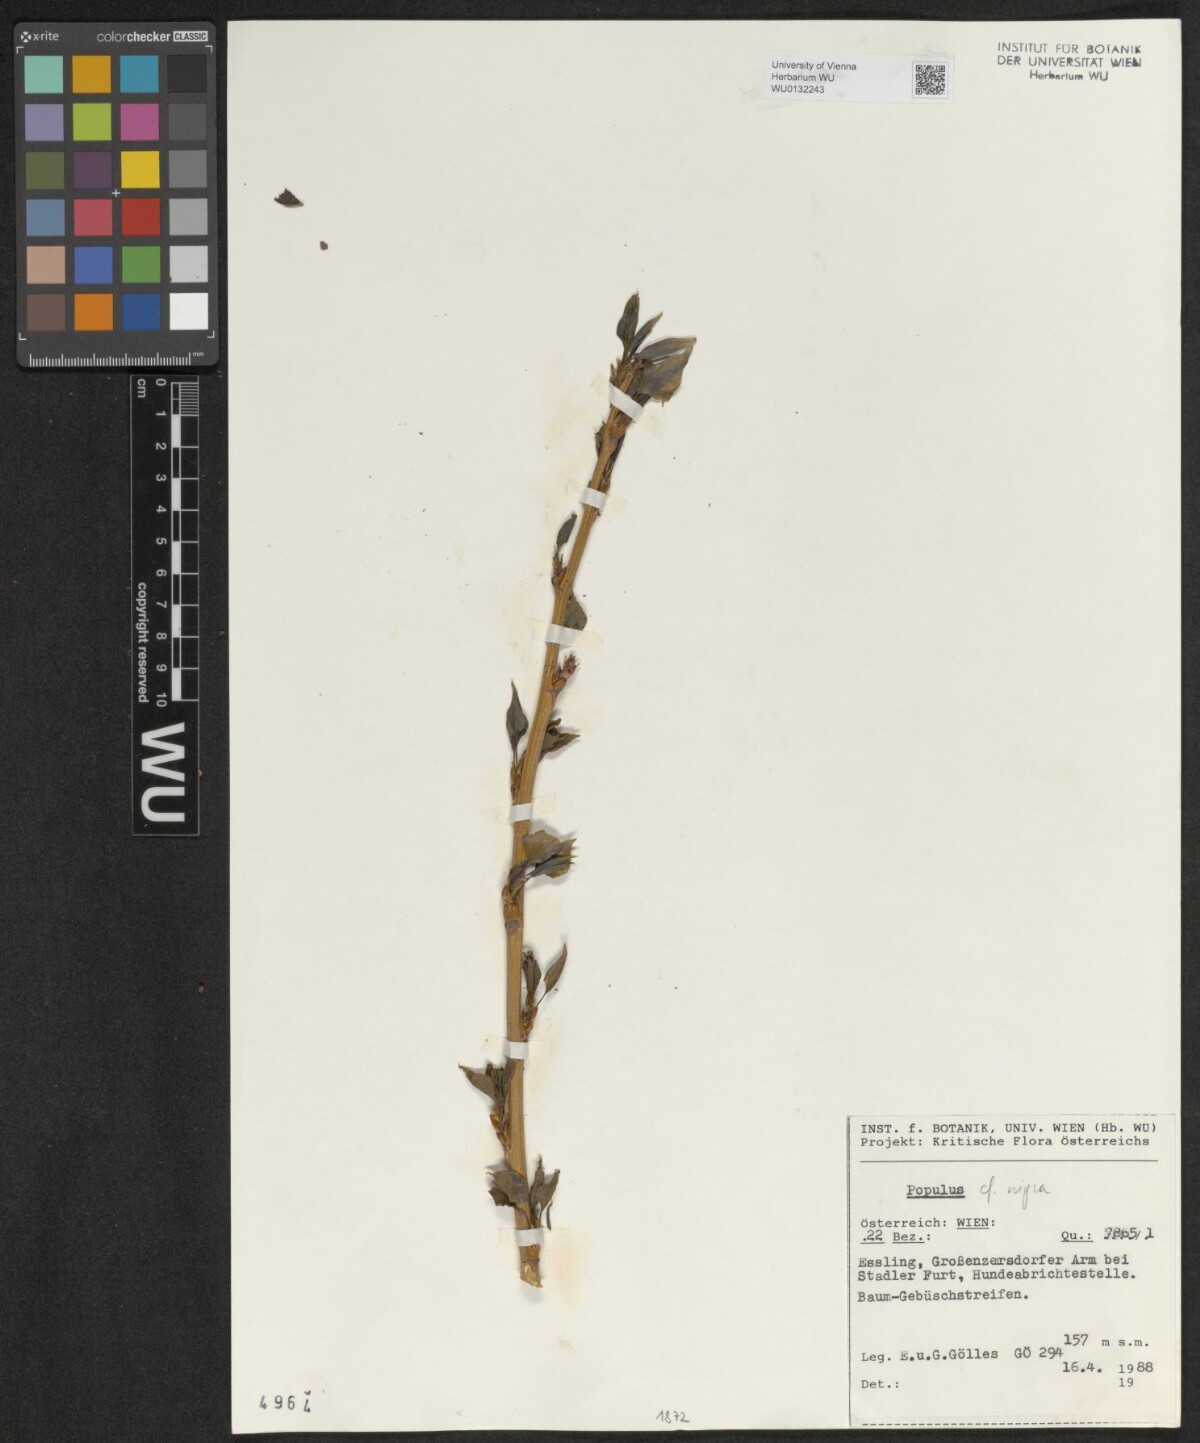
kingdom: Plantae
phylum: Tracheophyta
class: Magnoliopsida
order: Malpighiales
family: Salicaceae
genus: Populus
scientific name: Populus nigra
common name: Black poplar
